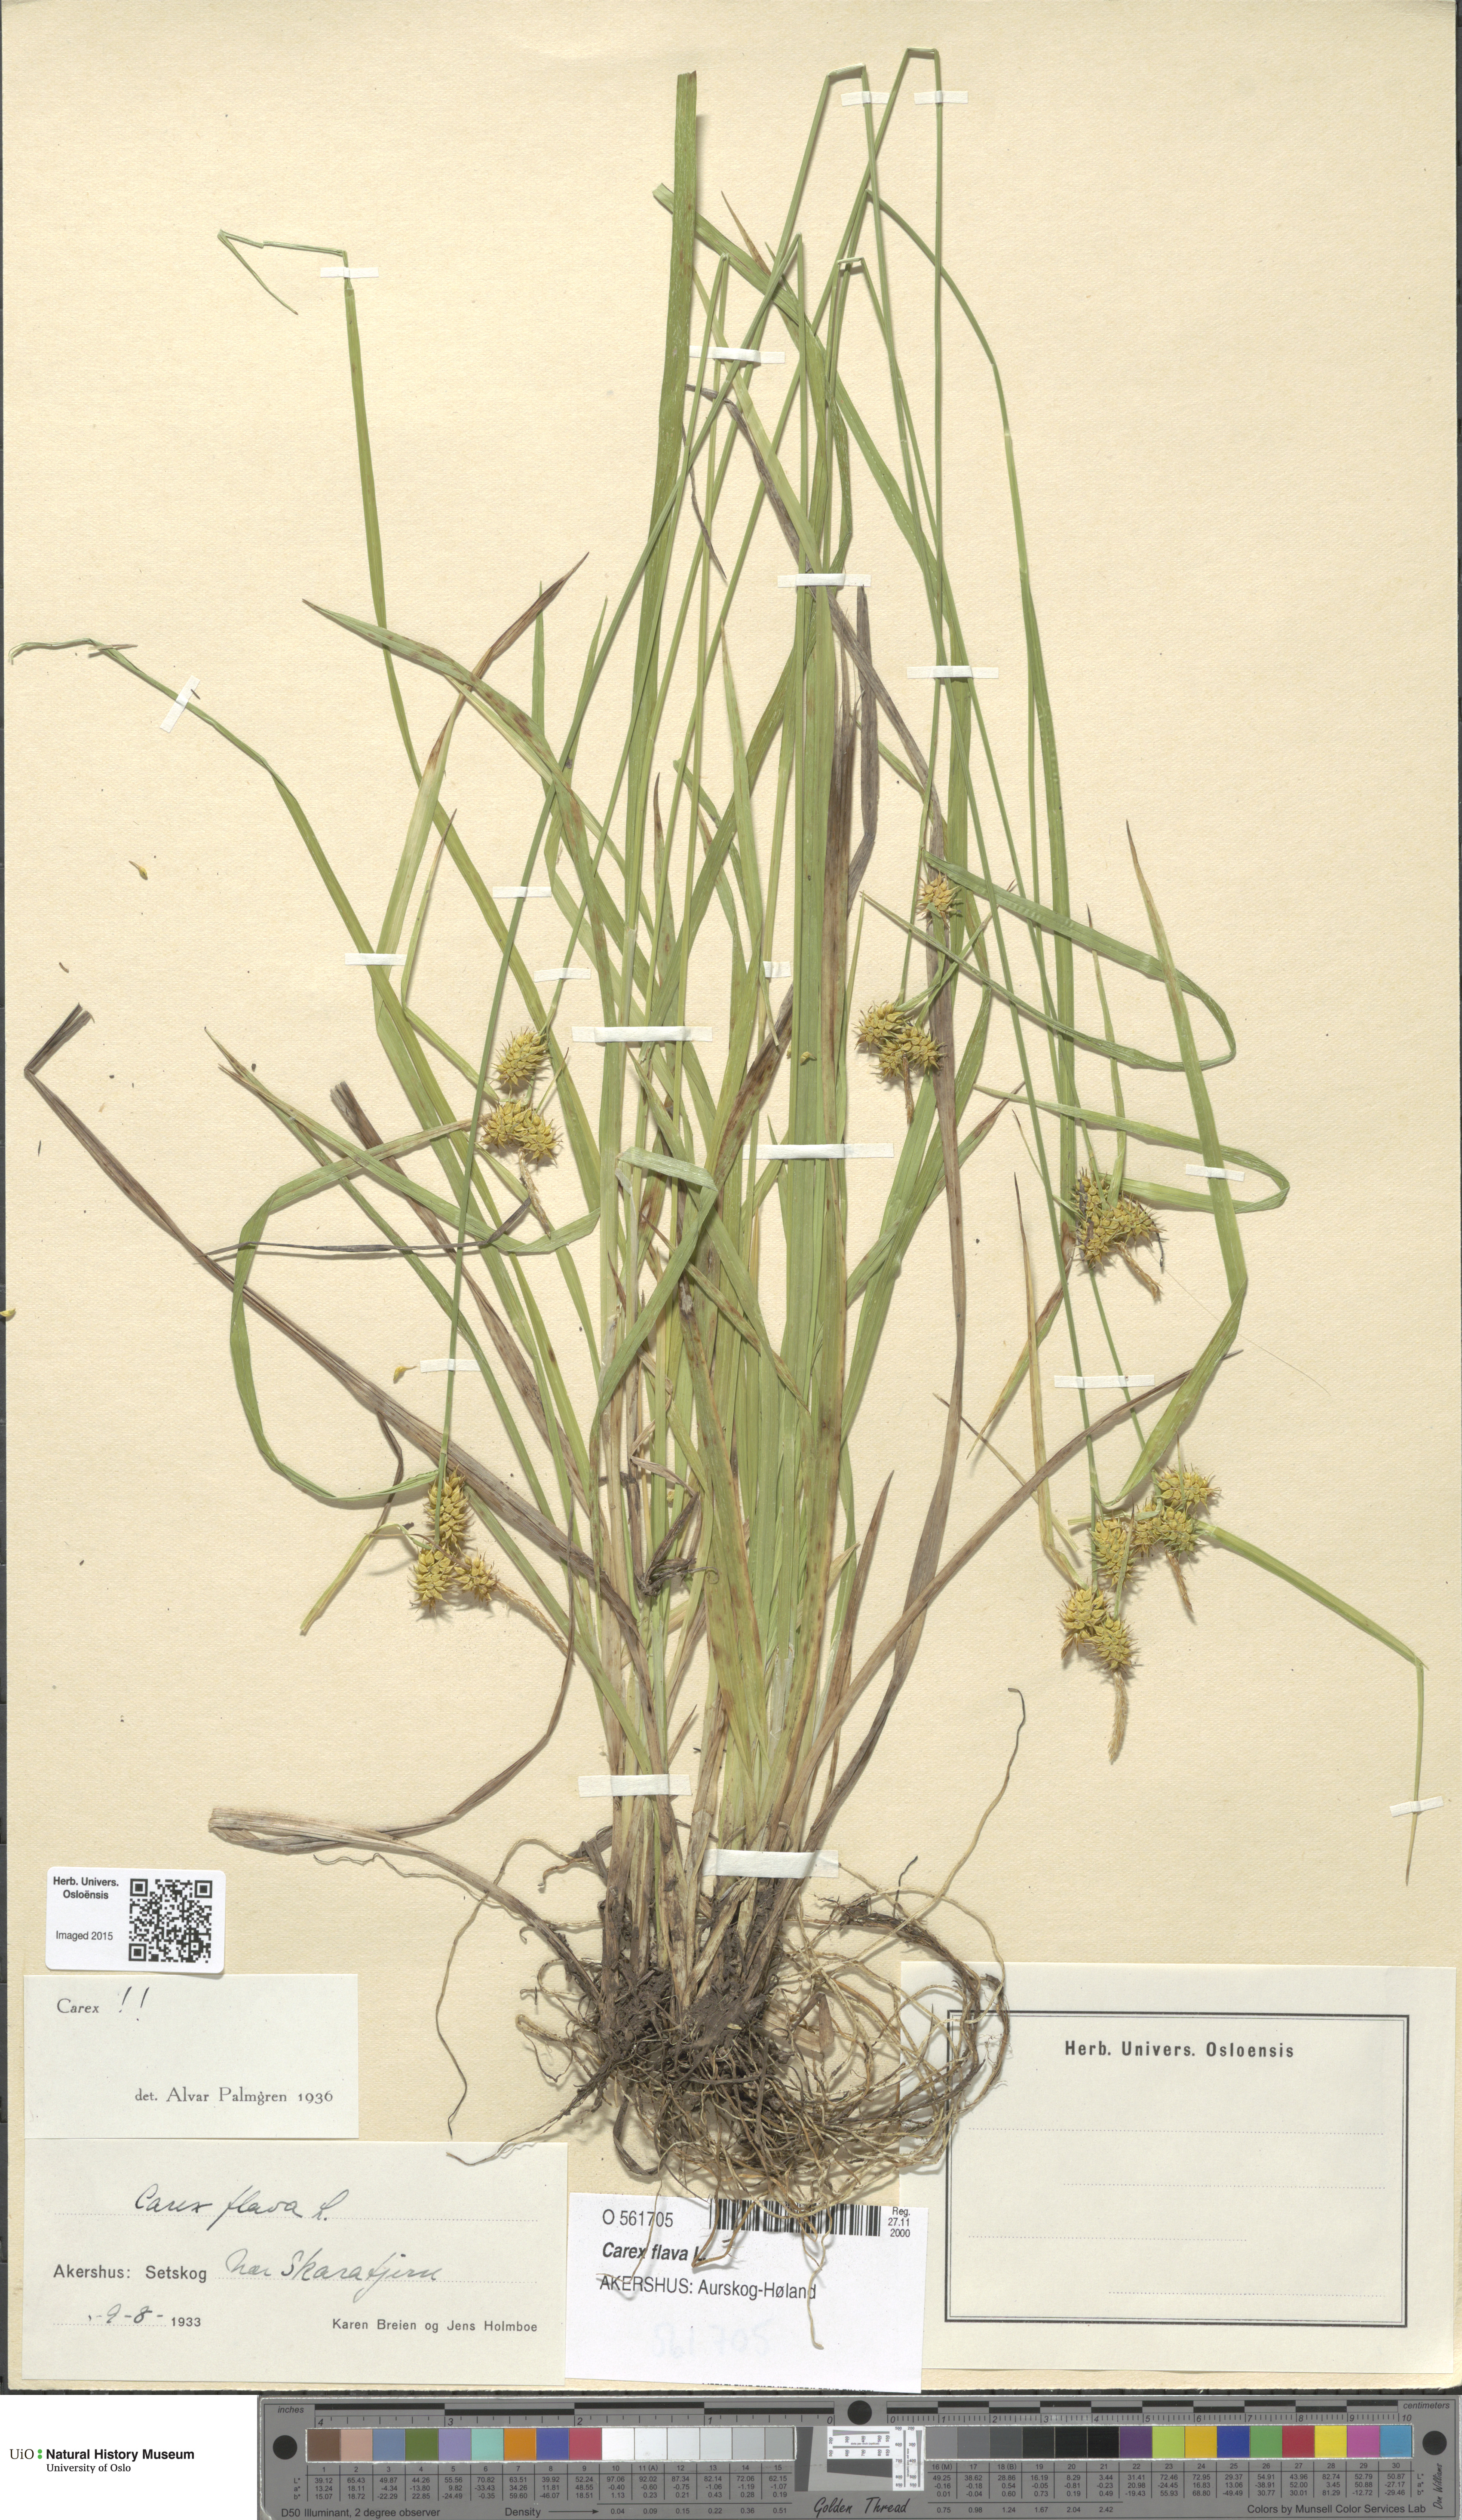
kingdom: Plantae
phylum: Tracheophyta
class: Liliopsida
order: Poales
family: Cyperaceae
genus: Carex
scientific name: Carex flava
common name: Large yellow-sedge
